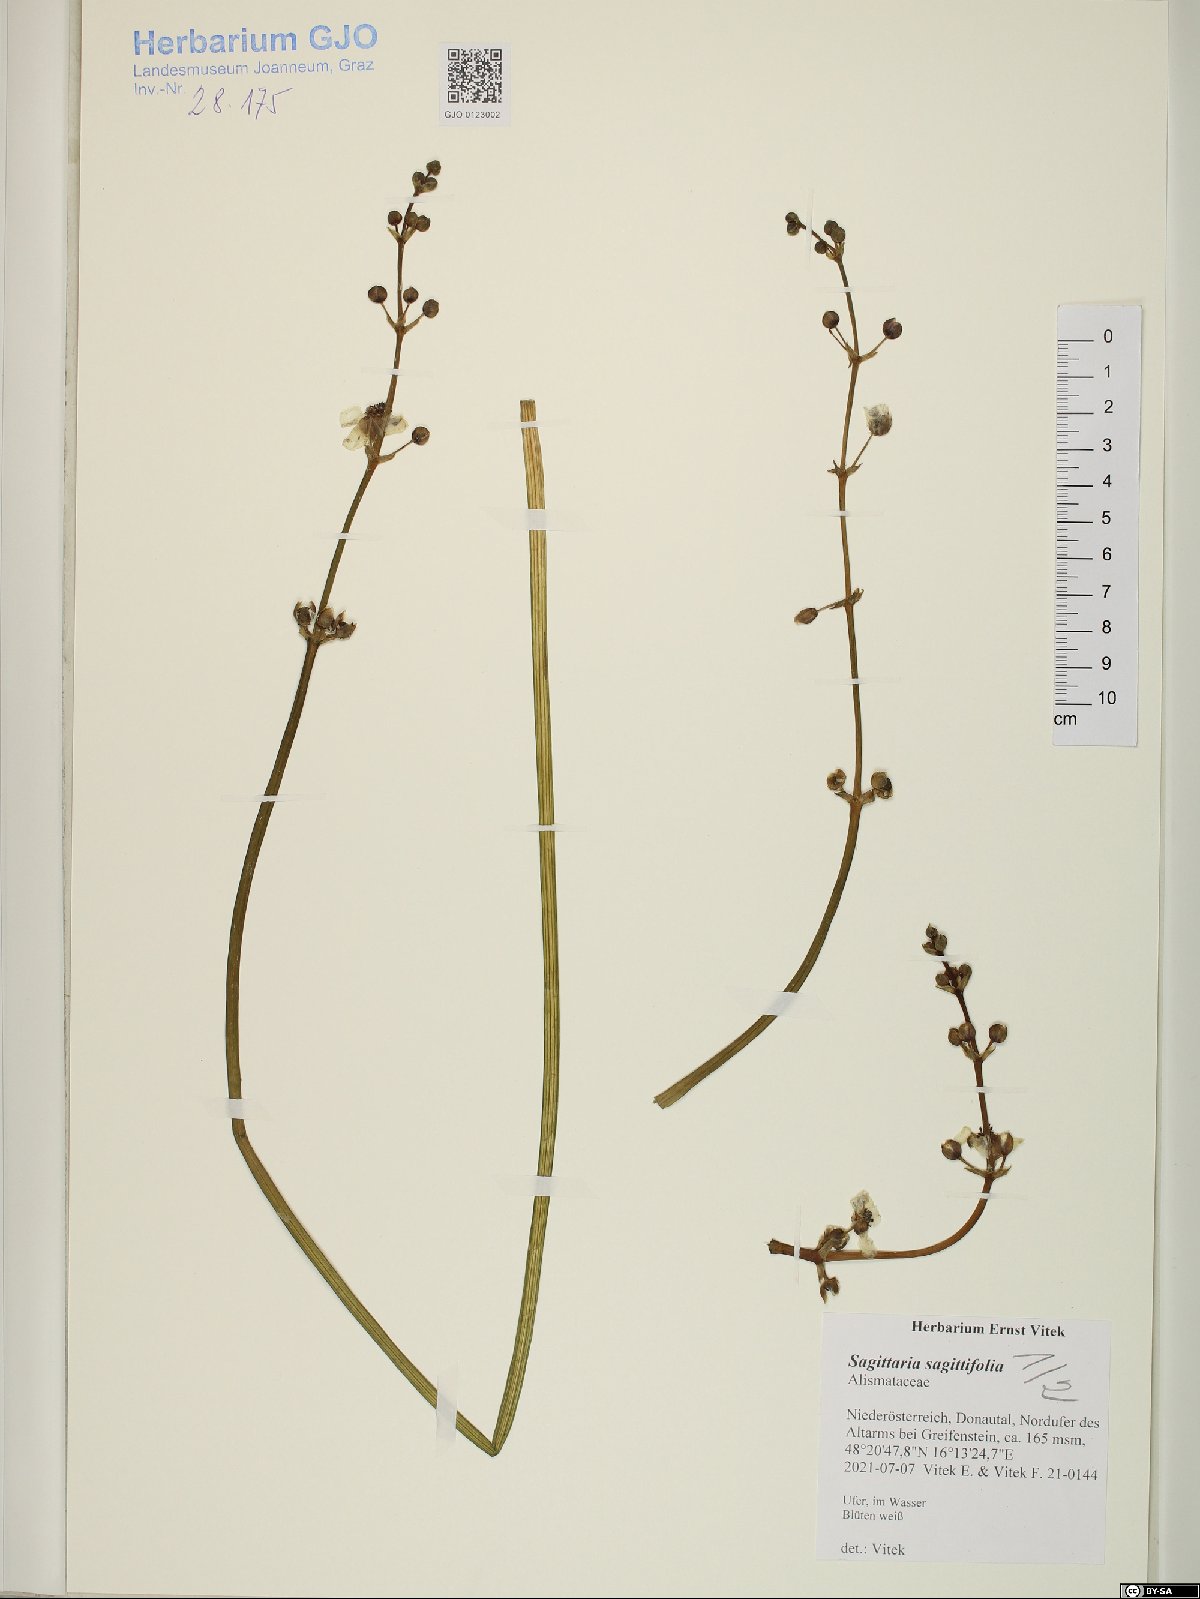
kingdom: Plantae
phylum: Tracheophyta
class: Liliopsida
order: Alismatales
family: Alismataceae
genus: Sagittaria
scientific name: Sagittaria sagittifolia
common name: Arrowhead
